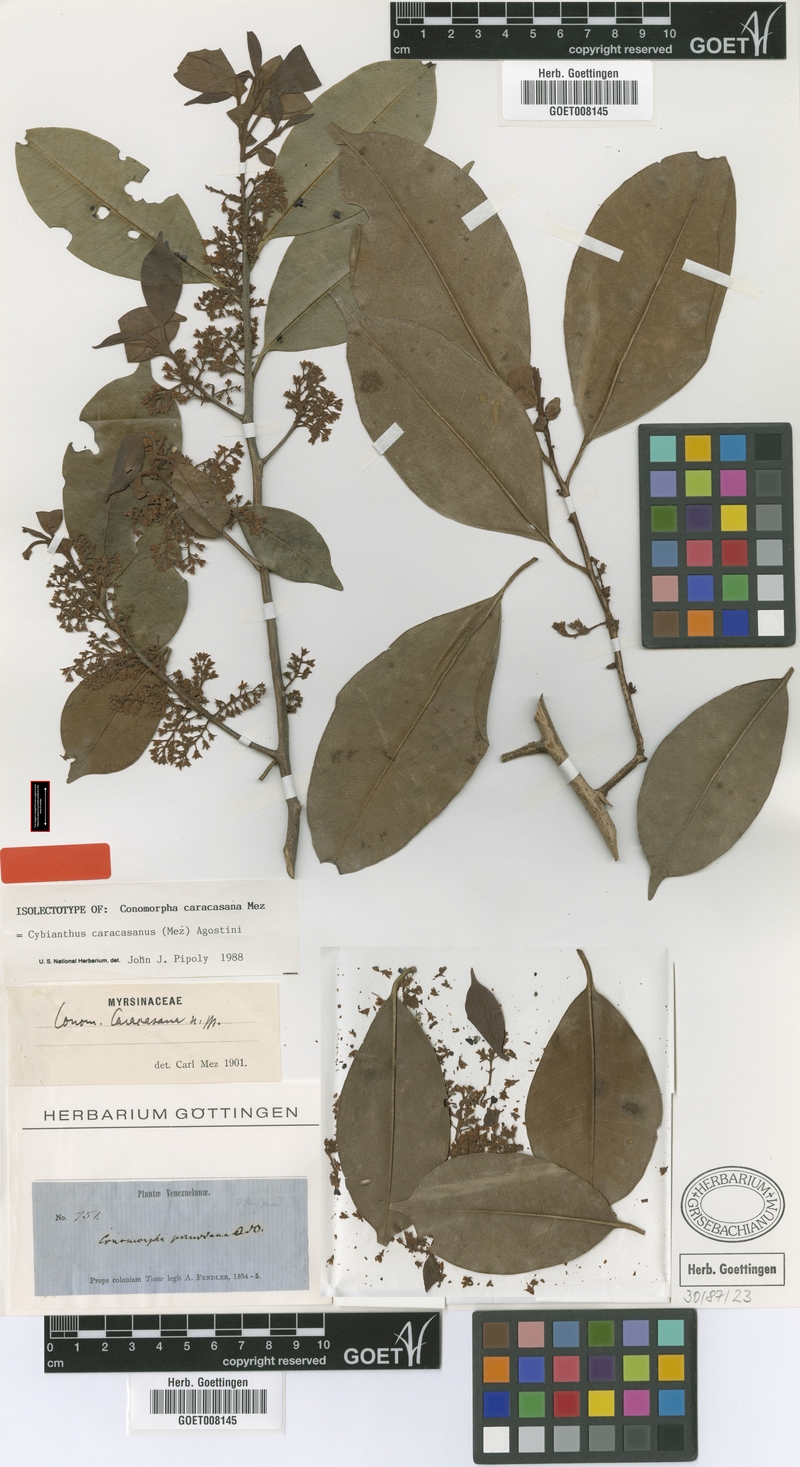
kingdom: Plantae
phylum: Tracheophyta
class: Magnoliopsida
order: Ericales
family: Primulaceae
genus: Cybianthus
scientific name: Cybianthus caracasanus
